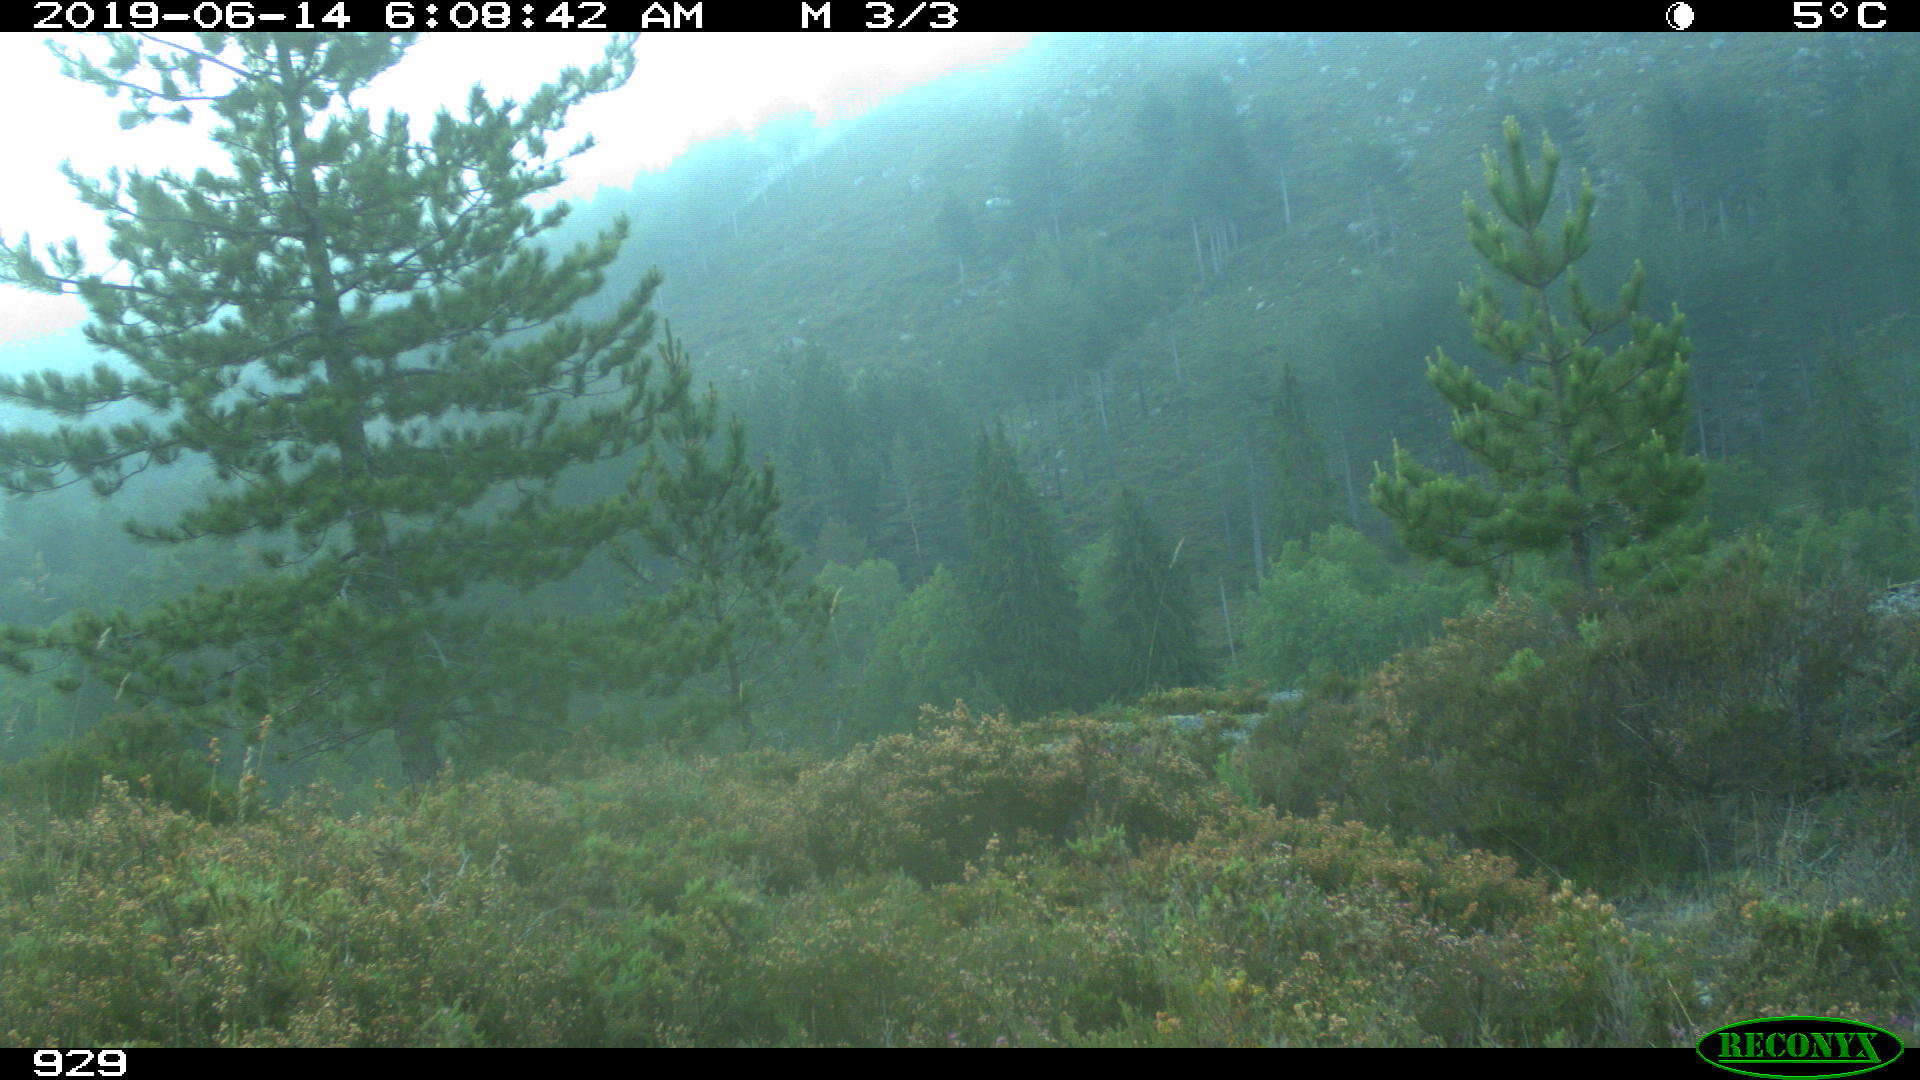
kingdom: Animalia
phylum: Chordata
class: Mammalia
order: Artiodactyla
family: Cervidae
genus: Capreolus
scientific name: Capreolus capreolus
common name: Western roe deer
